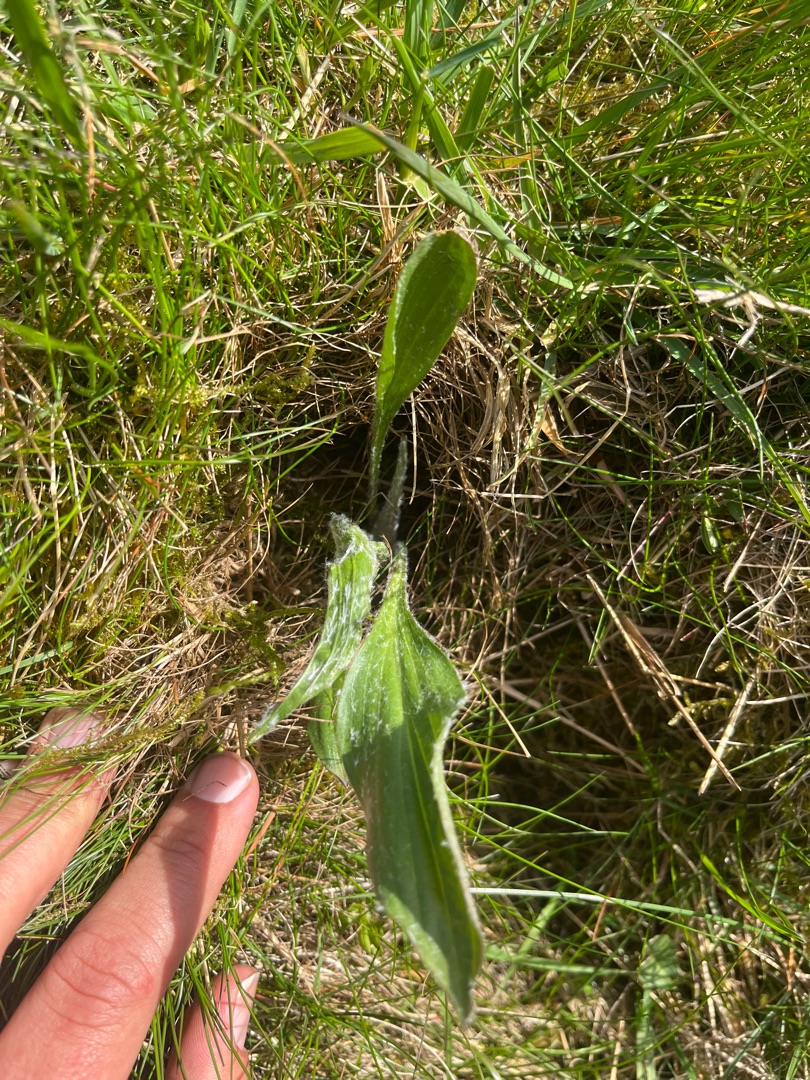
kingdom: Plantae
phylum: Tracheophyta
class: Magnoliopsida
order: Asterales
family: Asteraceae
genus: Scorzonera
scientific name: Scorzonera humilis
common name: Lav skorsoner
